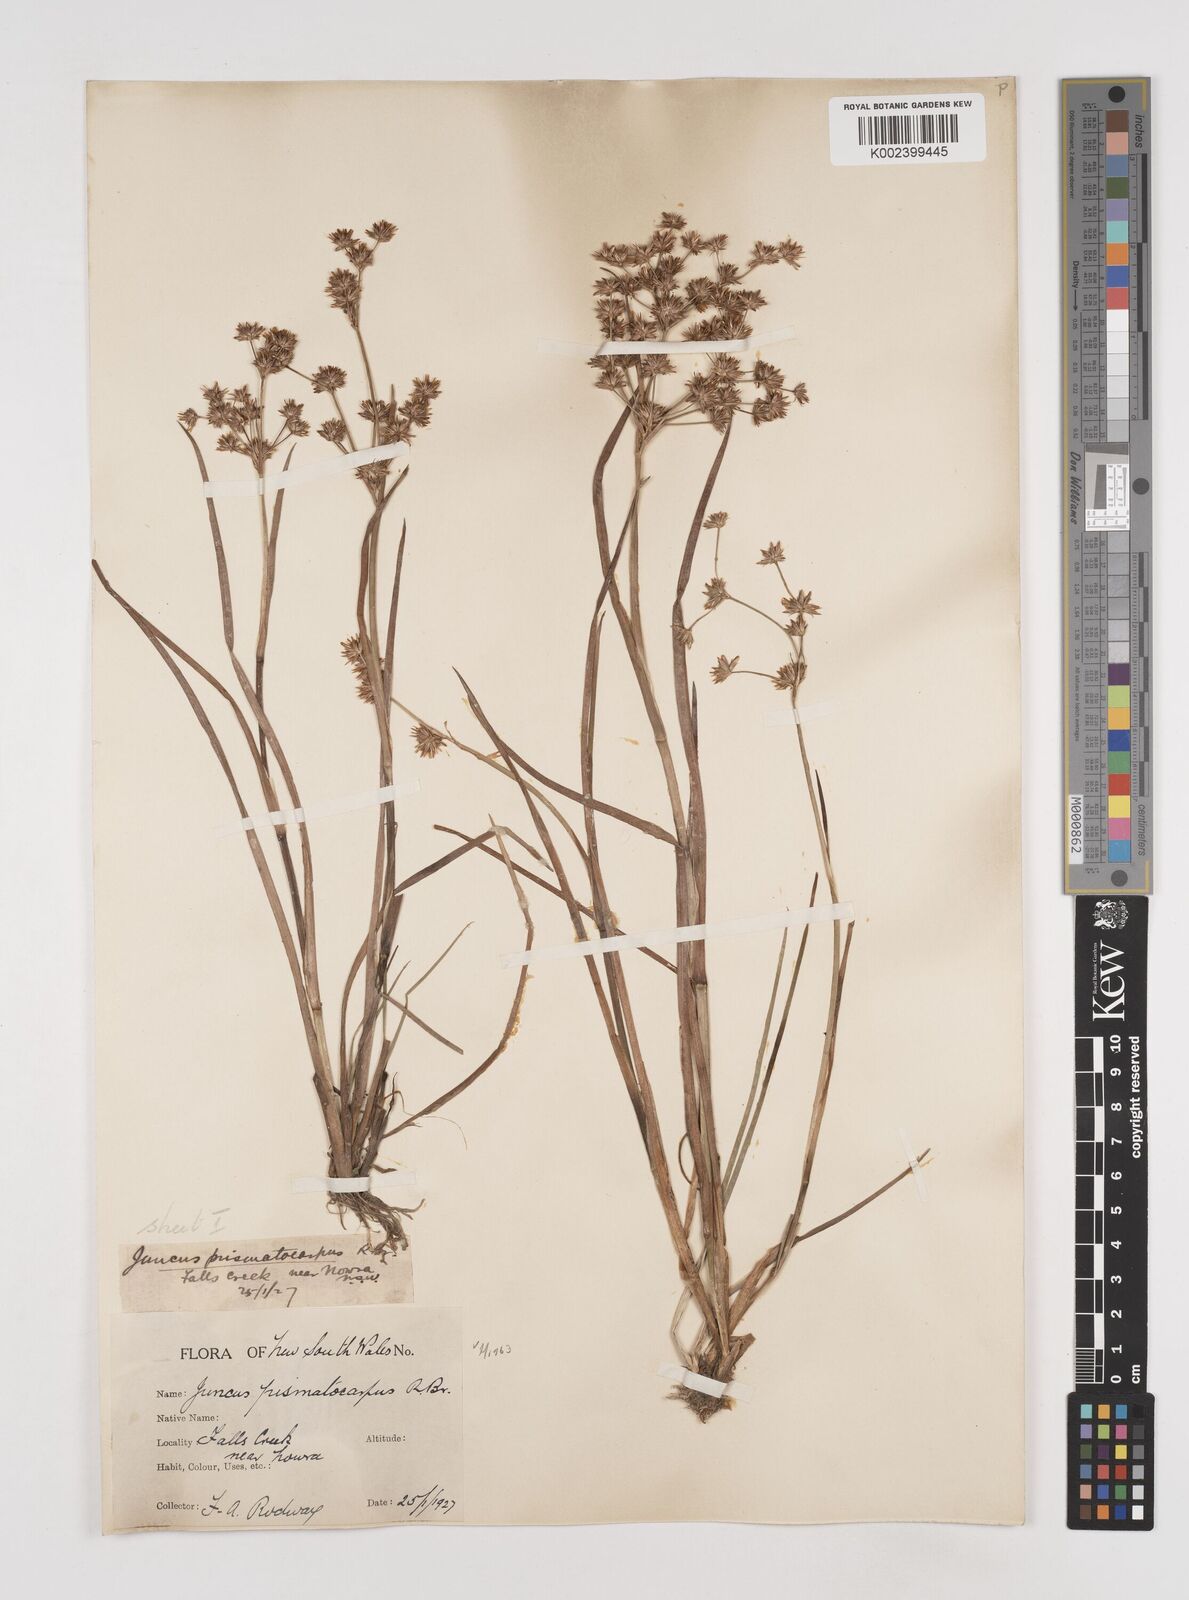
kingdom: Plantae
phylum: Tracheophyta
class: Liliopsida
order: Poales
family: Juncaceae
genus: Juncus
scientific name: Juncus prismatocarpus
